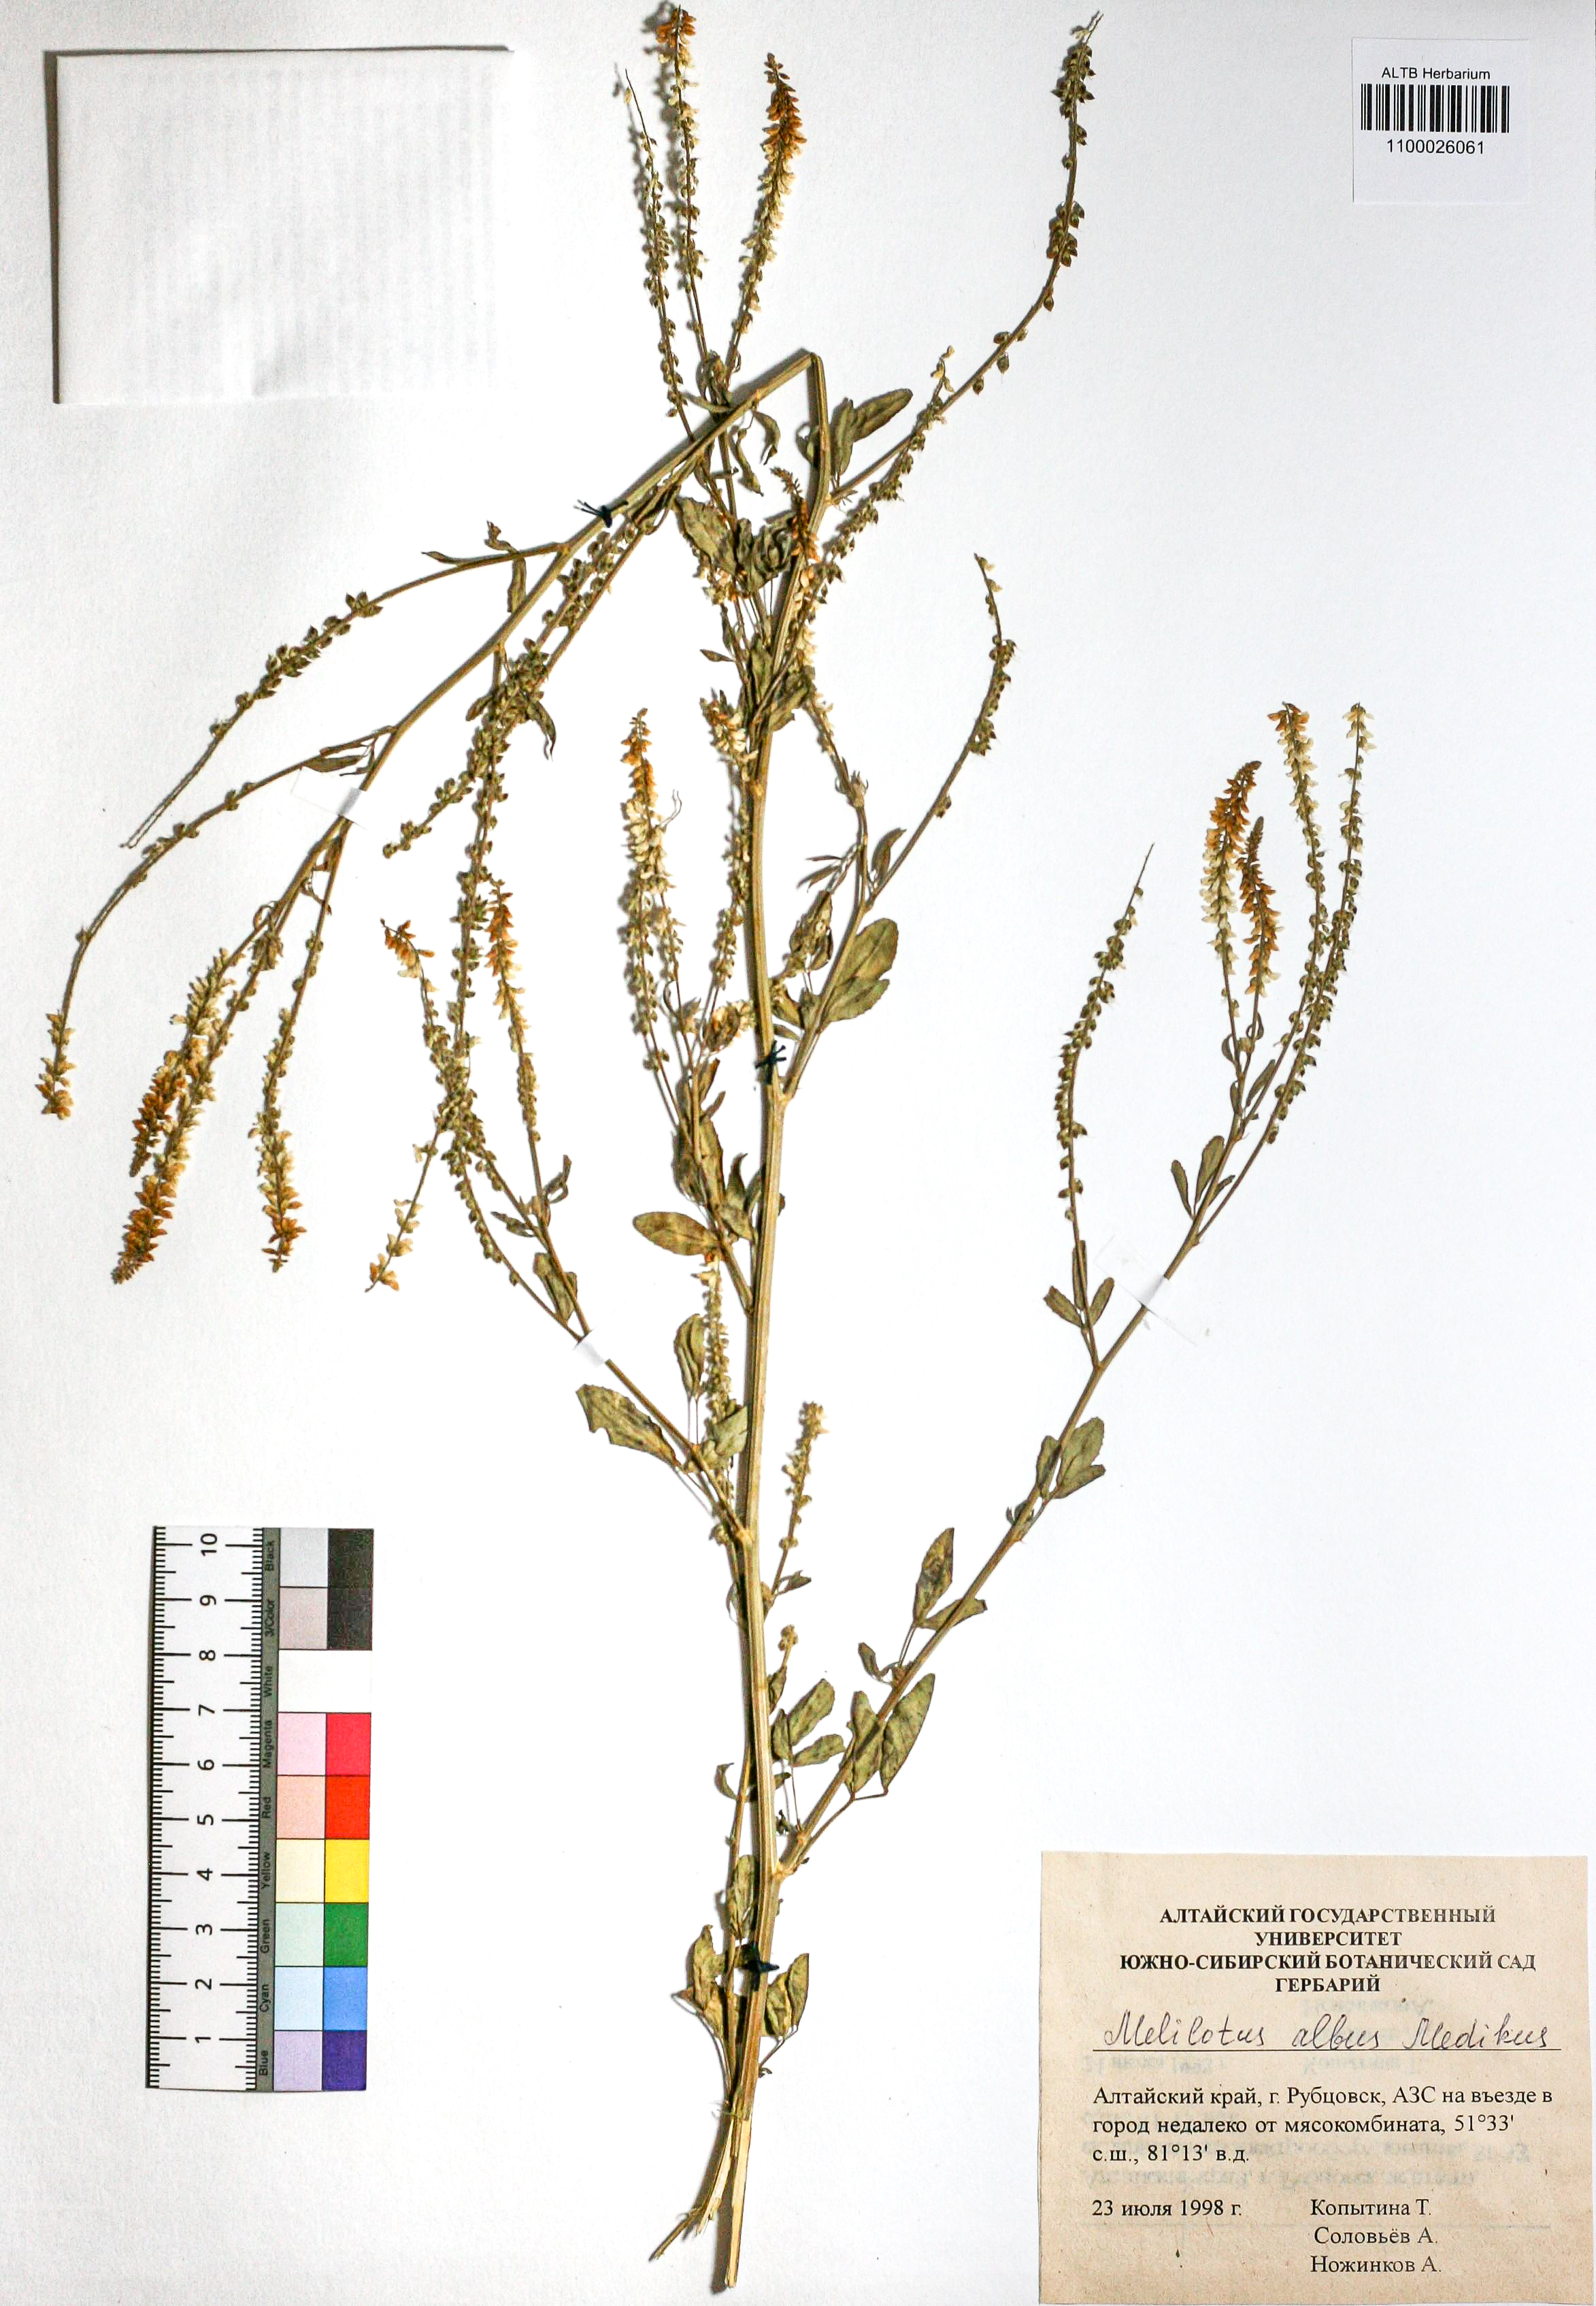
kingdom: Plantae
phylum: Tracheophyta
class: Magnoliopsida
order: Fabales
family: Fabaceae
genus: Melilotus
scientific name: Melilotus albus
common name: White melilot
